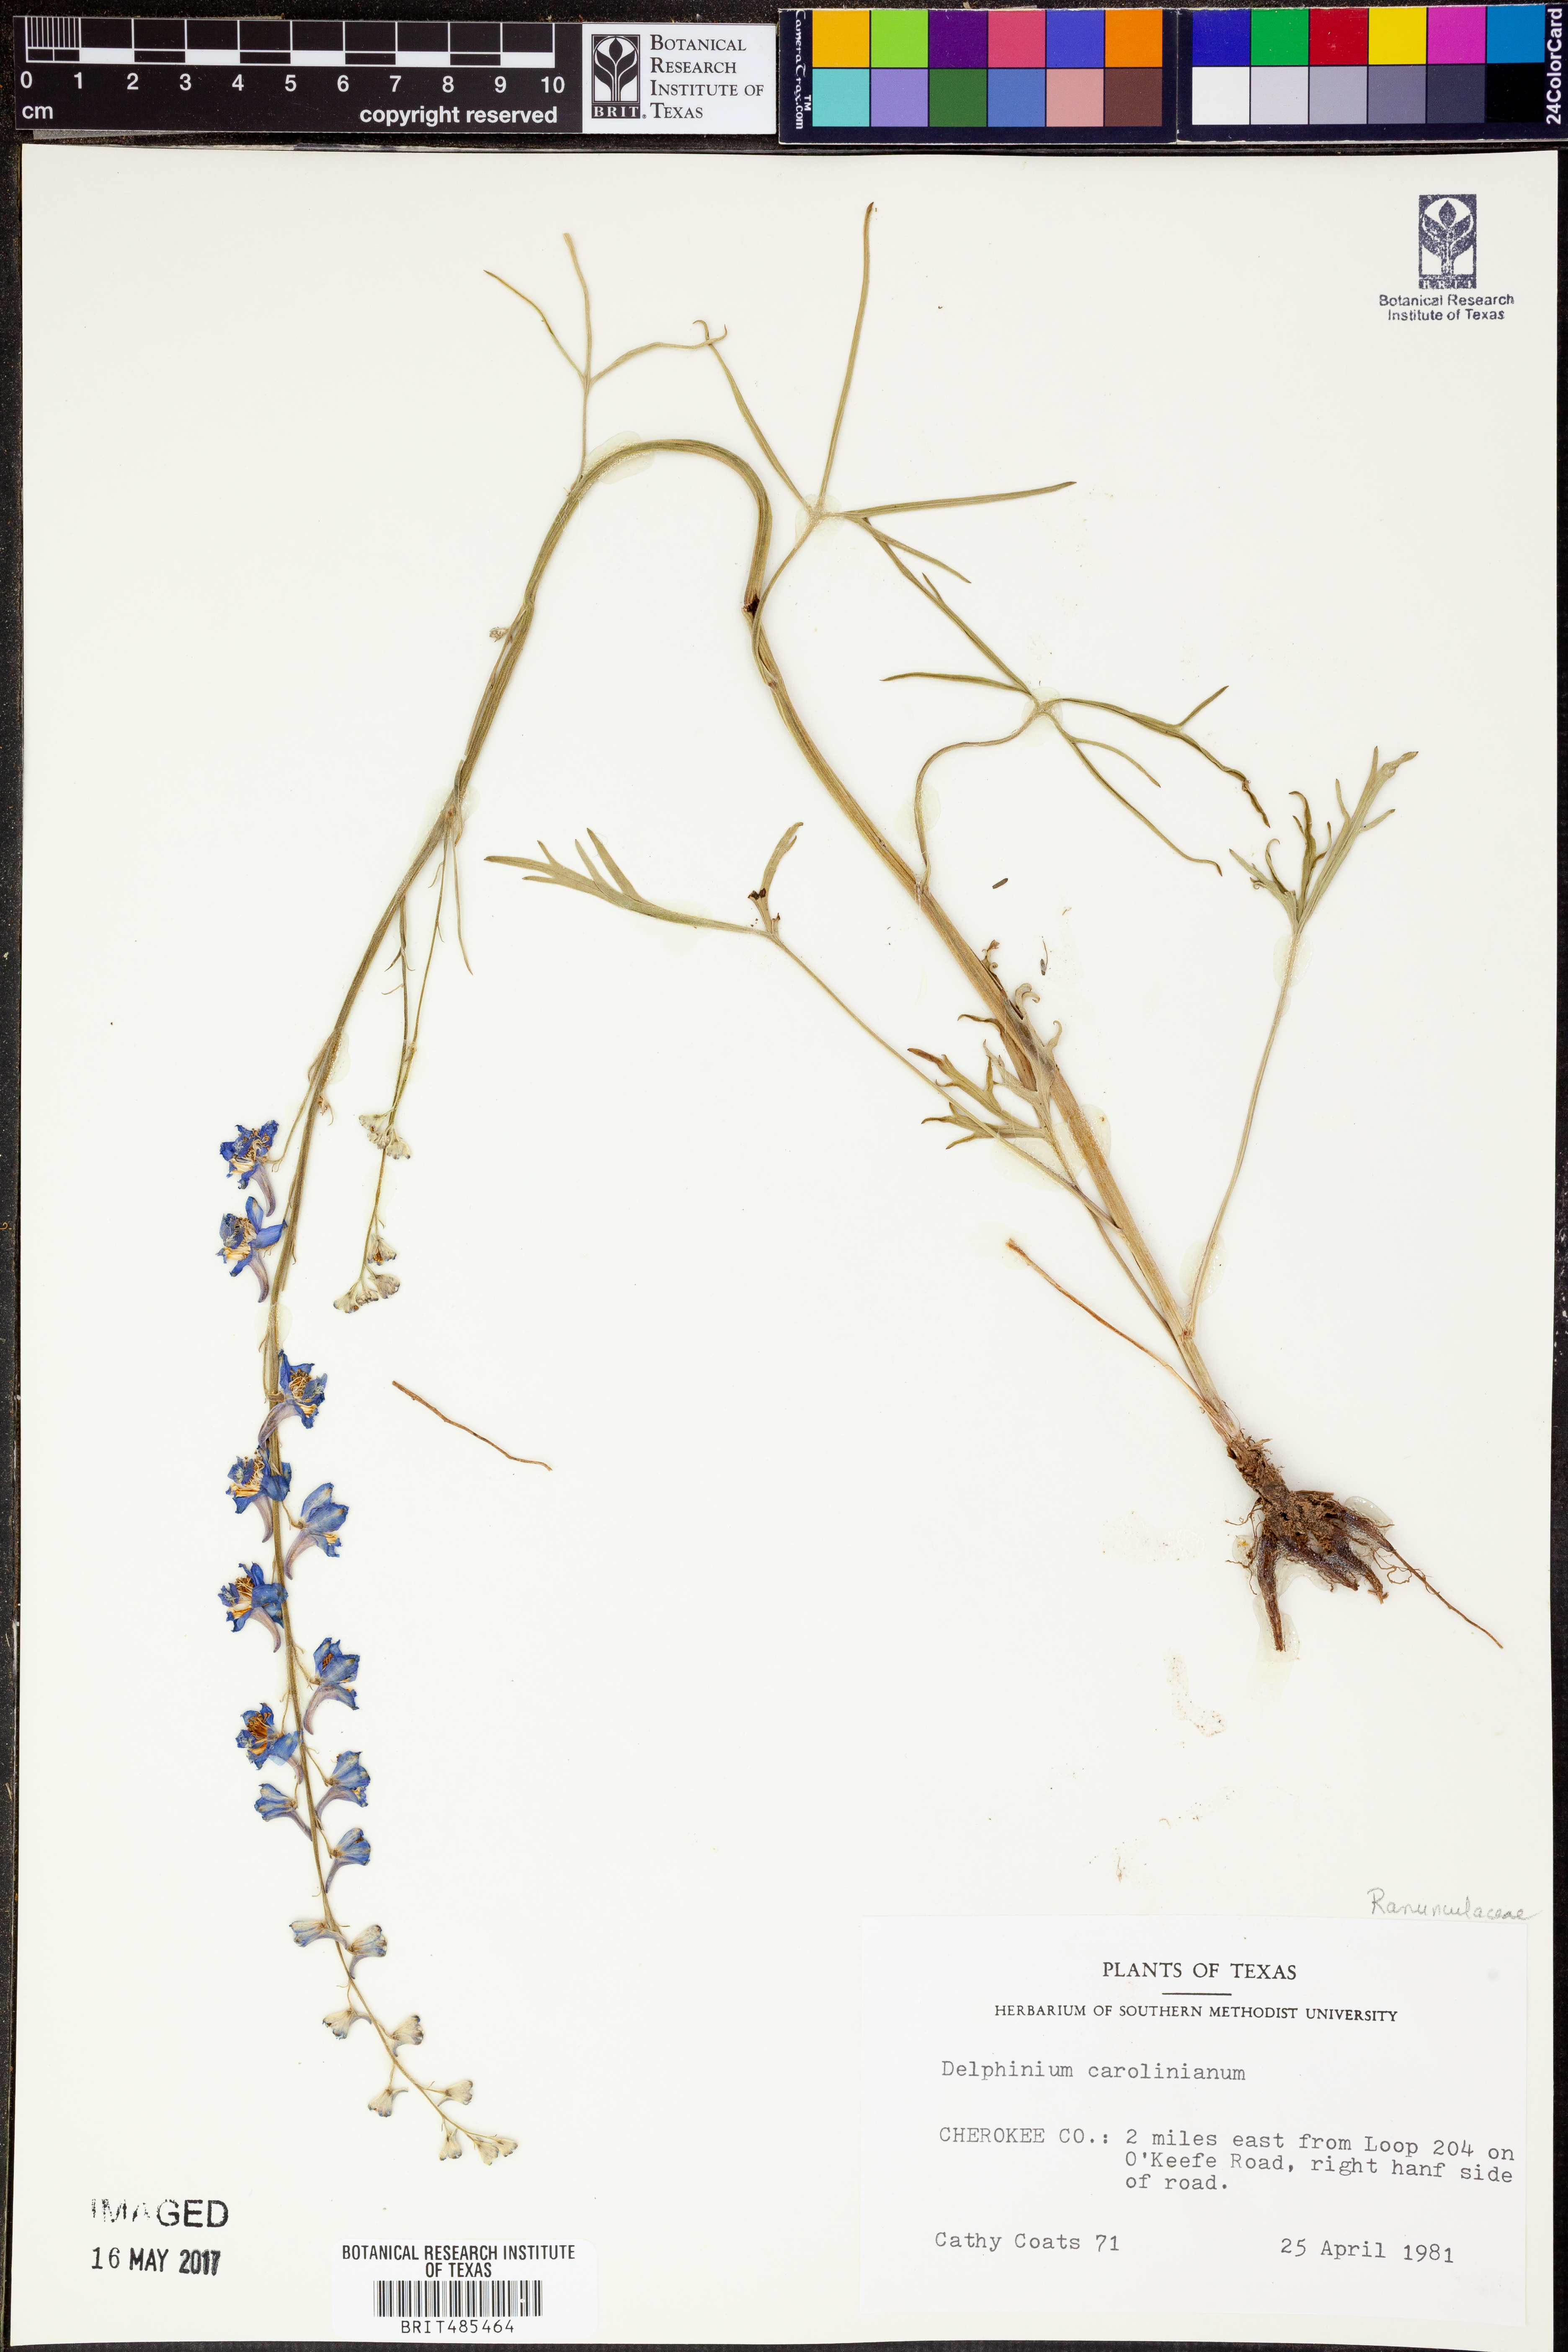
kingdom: Plantae
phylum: Tracheophyta
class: Magnoliopsida
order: Ranunculales
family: Ranunculaceae
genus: Delphinium
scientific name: Delphinium carolinianum
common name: Carolina larkspur
